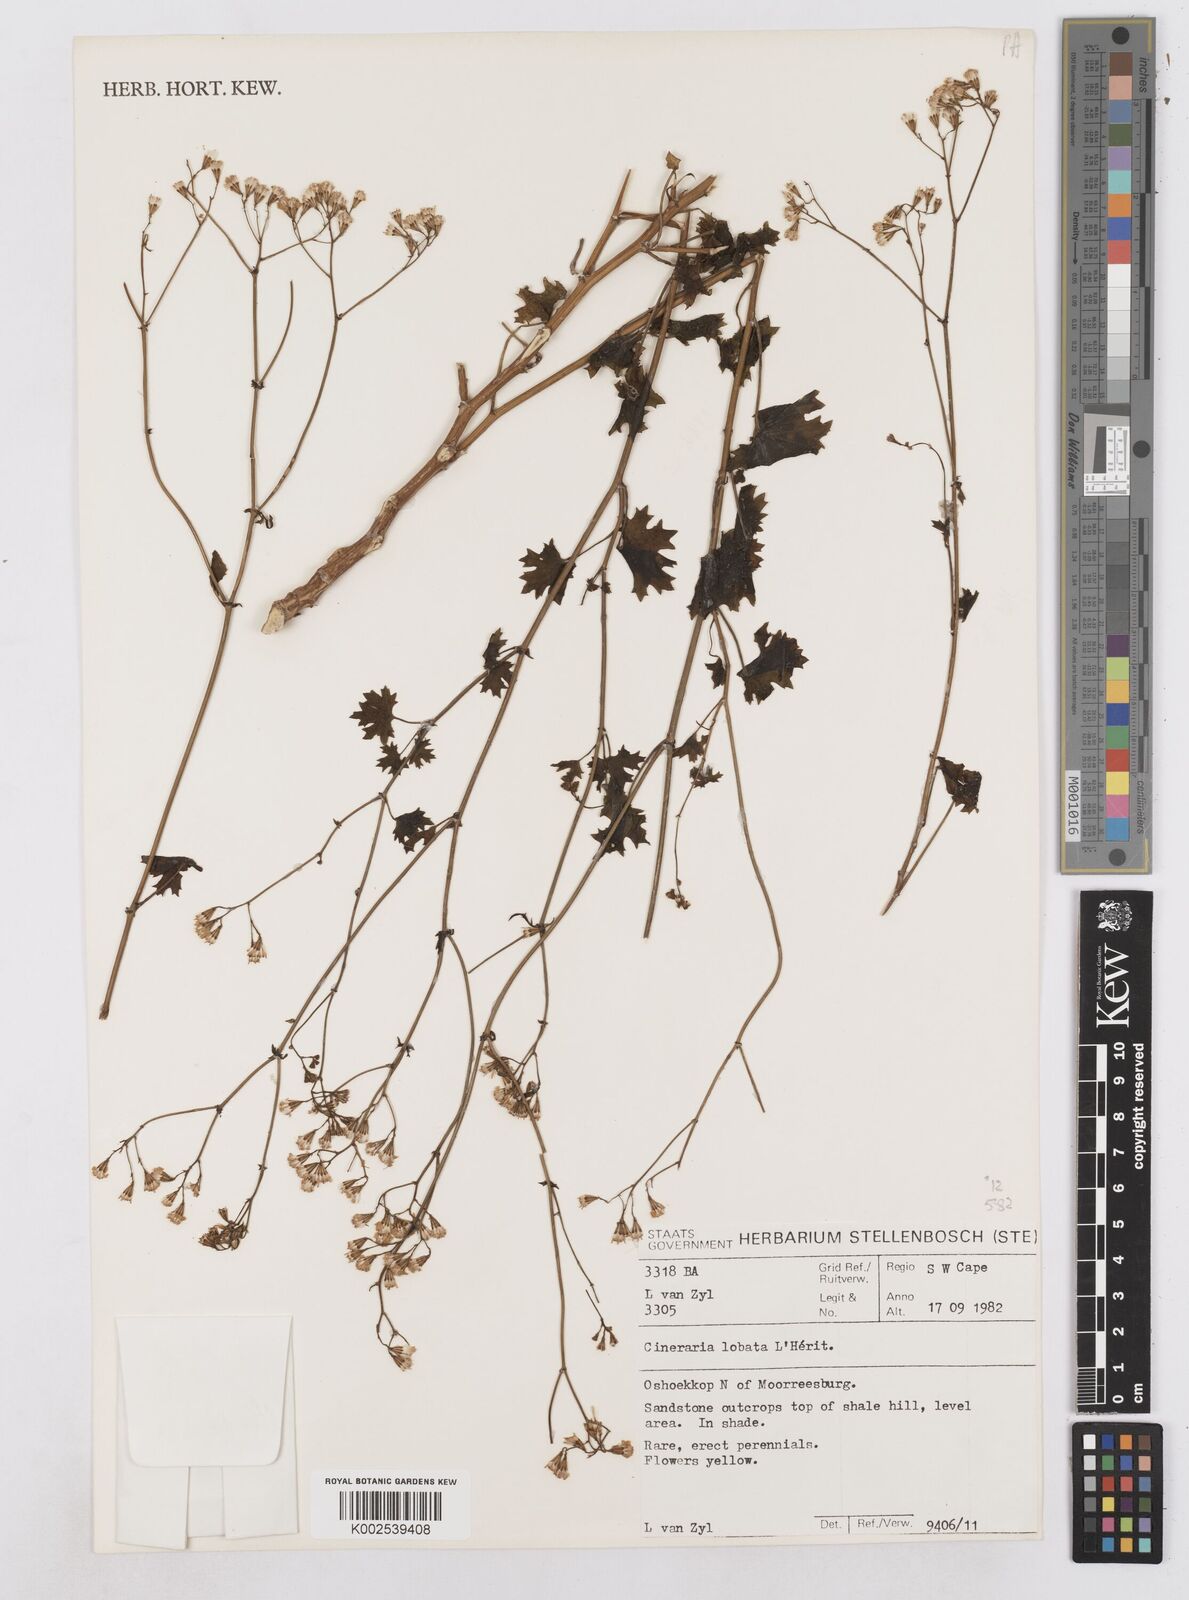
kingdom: Plantae
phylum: Tracheophyta
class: Magnoliopsida
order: Asterales
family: Asteraceae
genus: Cineraria
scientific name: Cineraria
